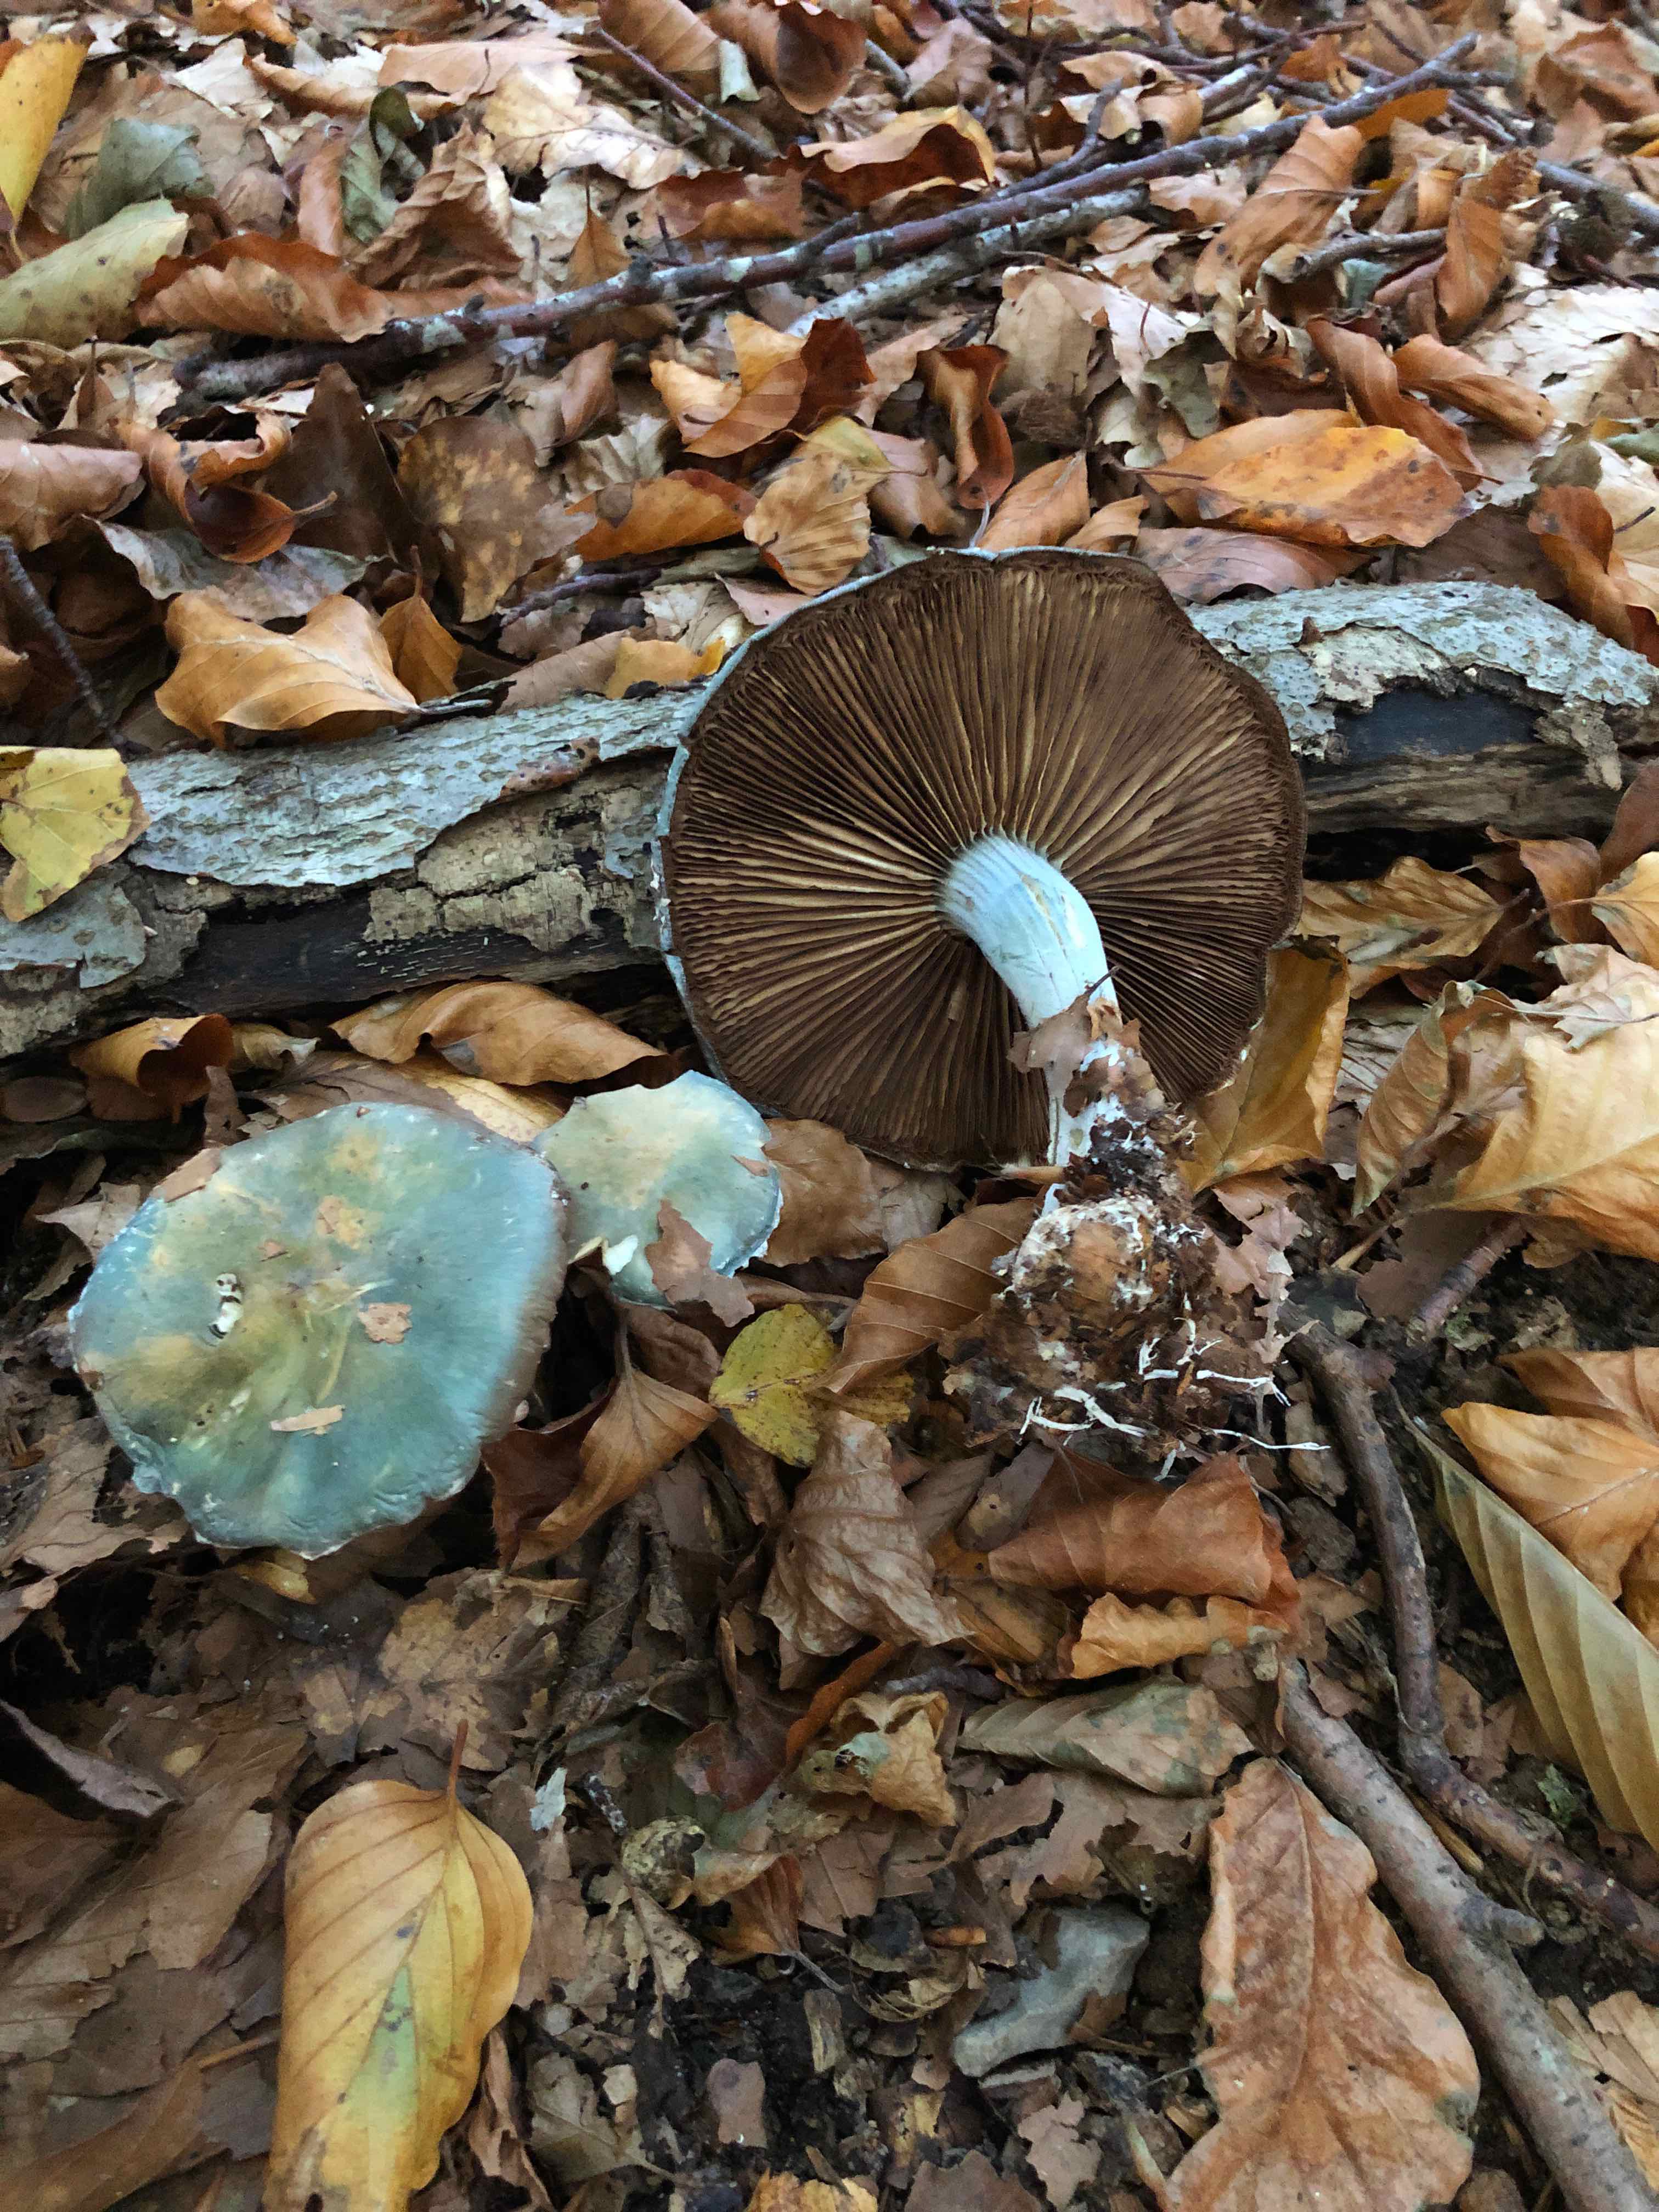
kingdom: Fungi
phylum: Basidiomycota
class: Agaricomycetes
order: Agaricales
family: Strophariaceae
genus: Stropharia
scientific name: Stropharia cyanea
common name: blågrøn bredblad
